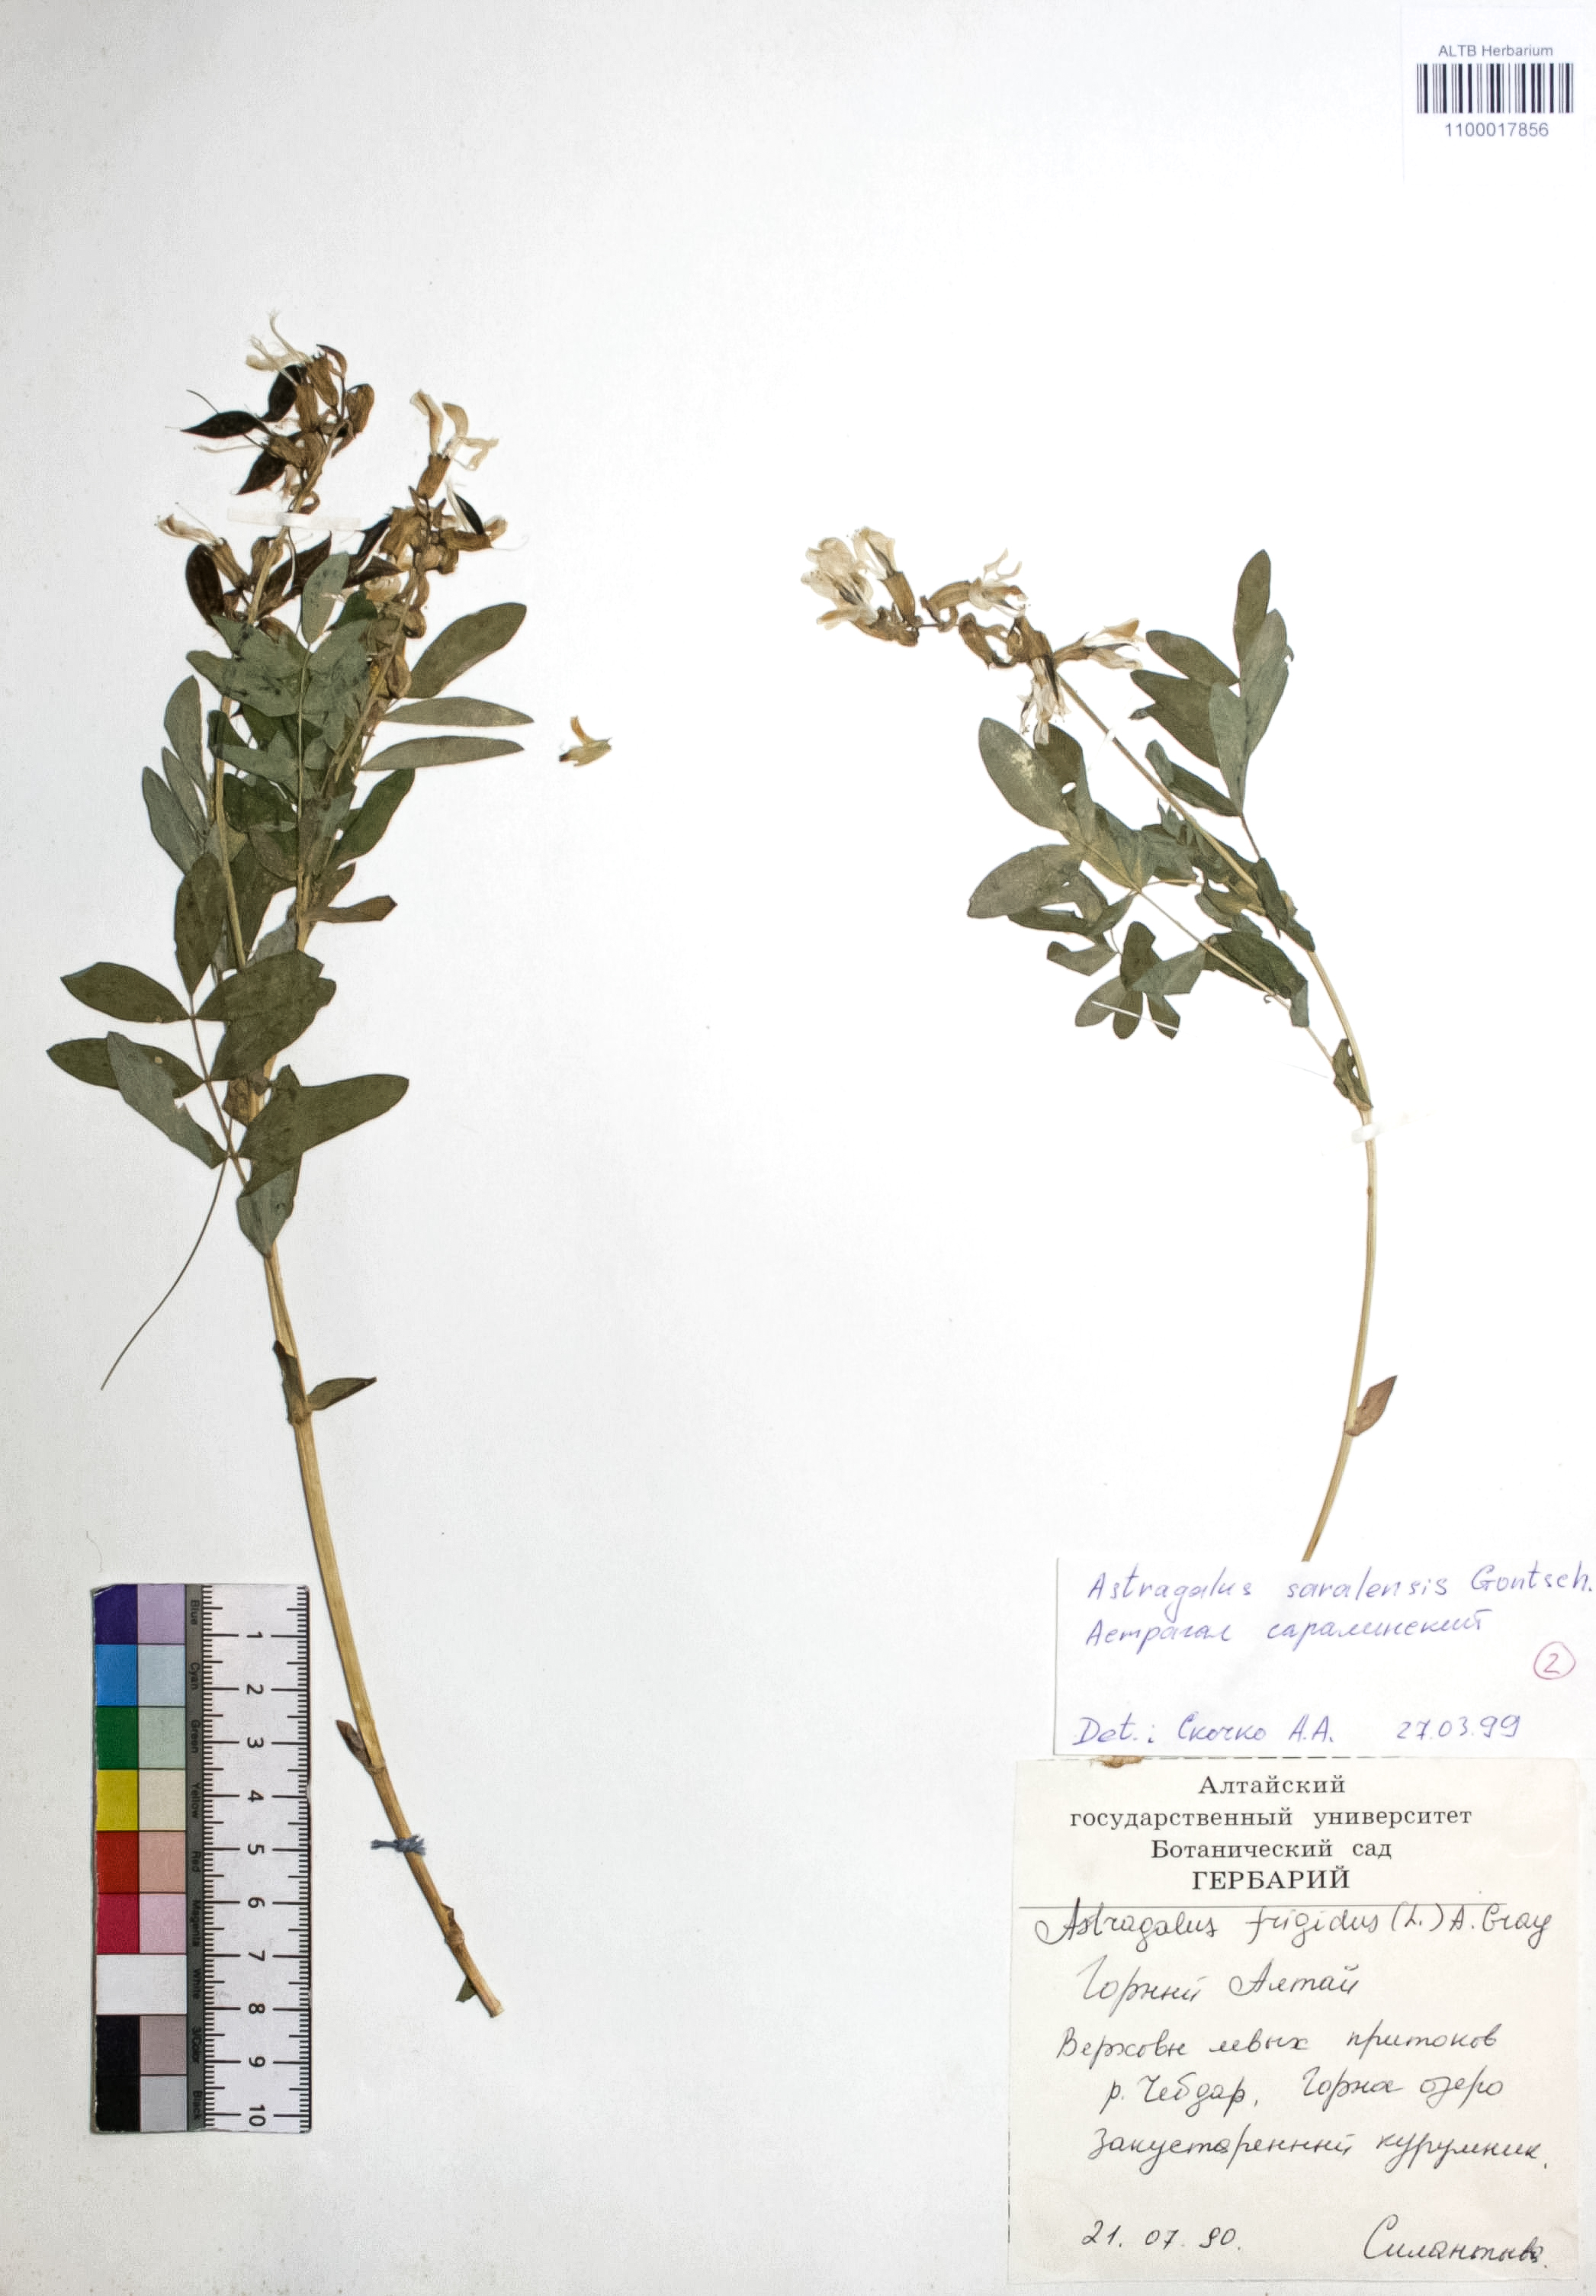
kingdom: Plantae
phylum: Tracheophyta
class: Magnoliopsida
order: Fabales
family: Fabaceae
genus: Astragalus
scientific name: Astragalus saralensis
